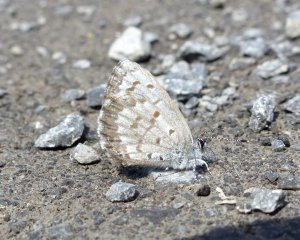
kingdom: Animalia
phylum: Arthropoda
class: Insecta
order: Lepidoptera
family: Lycaenidae
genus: Celastrina
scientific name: Celastrina lucia
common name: Northern Spring Azure
